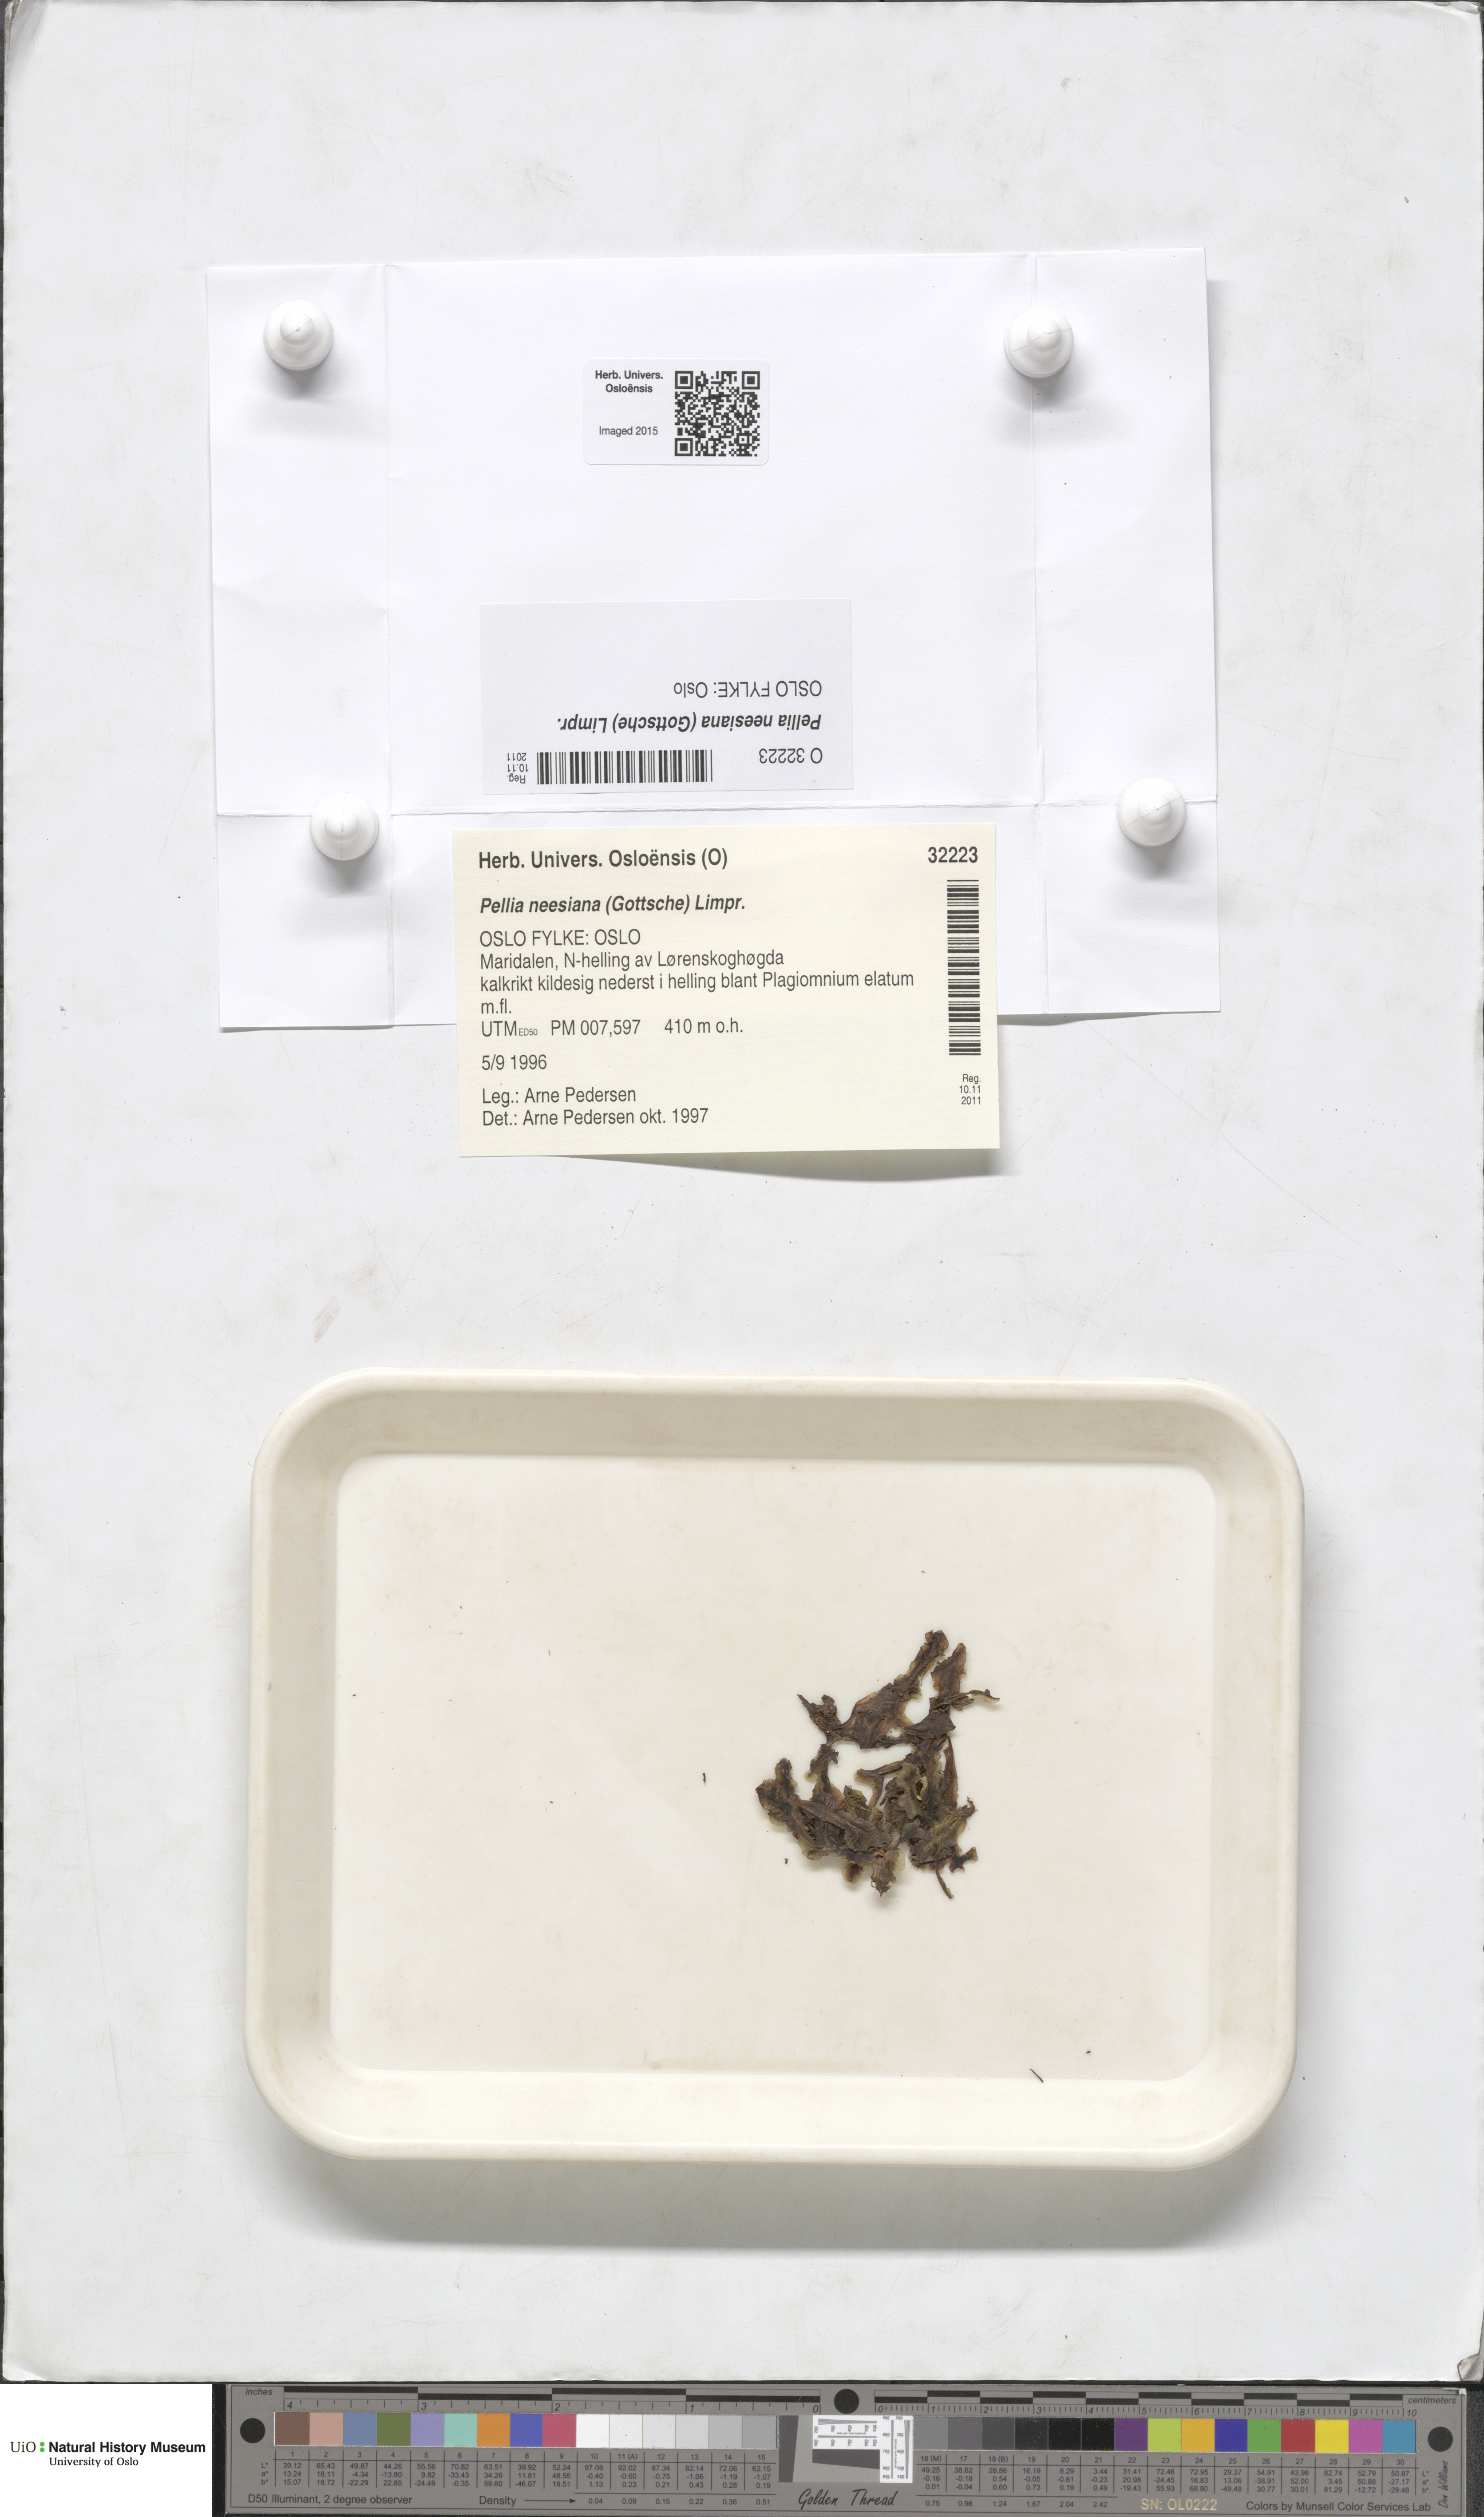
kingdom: Plantae
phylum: Marchantiophyta
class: Jungermanniopsida
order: Pelliales
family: Pelliaceae
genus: Pellia
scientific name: Pellia neesiana
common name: Nees  pellia
